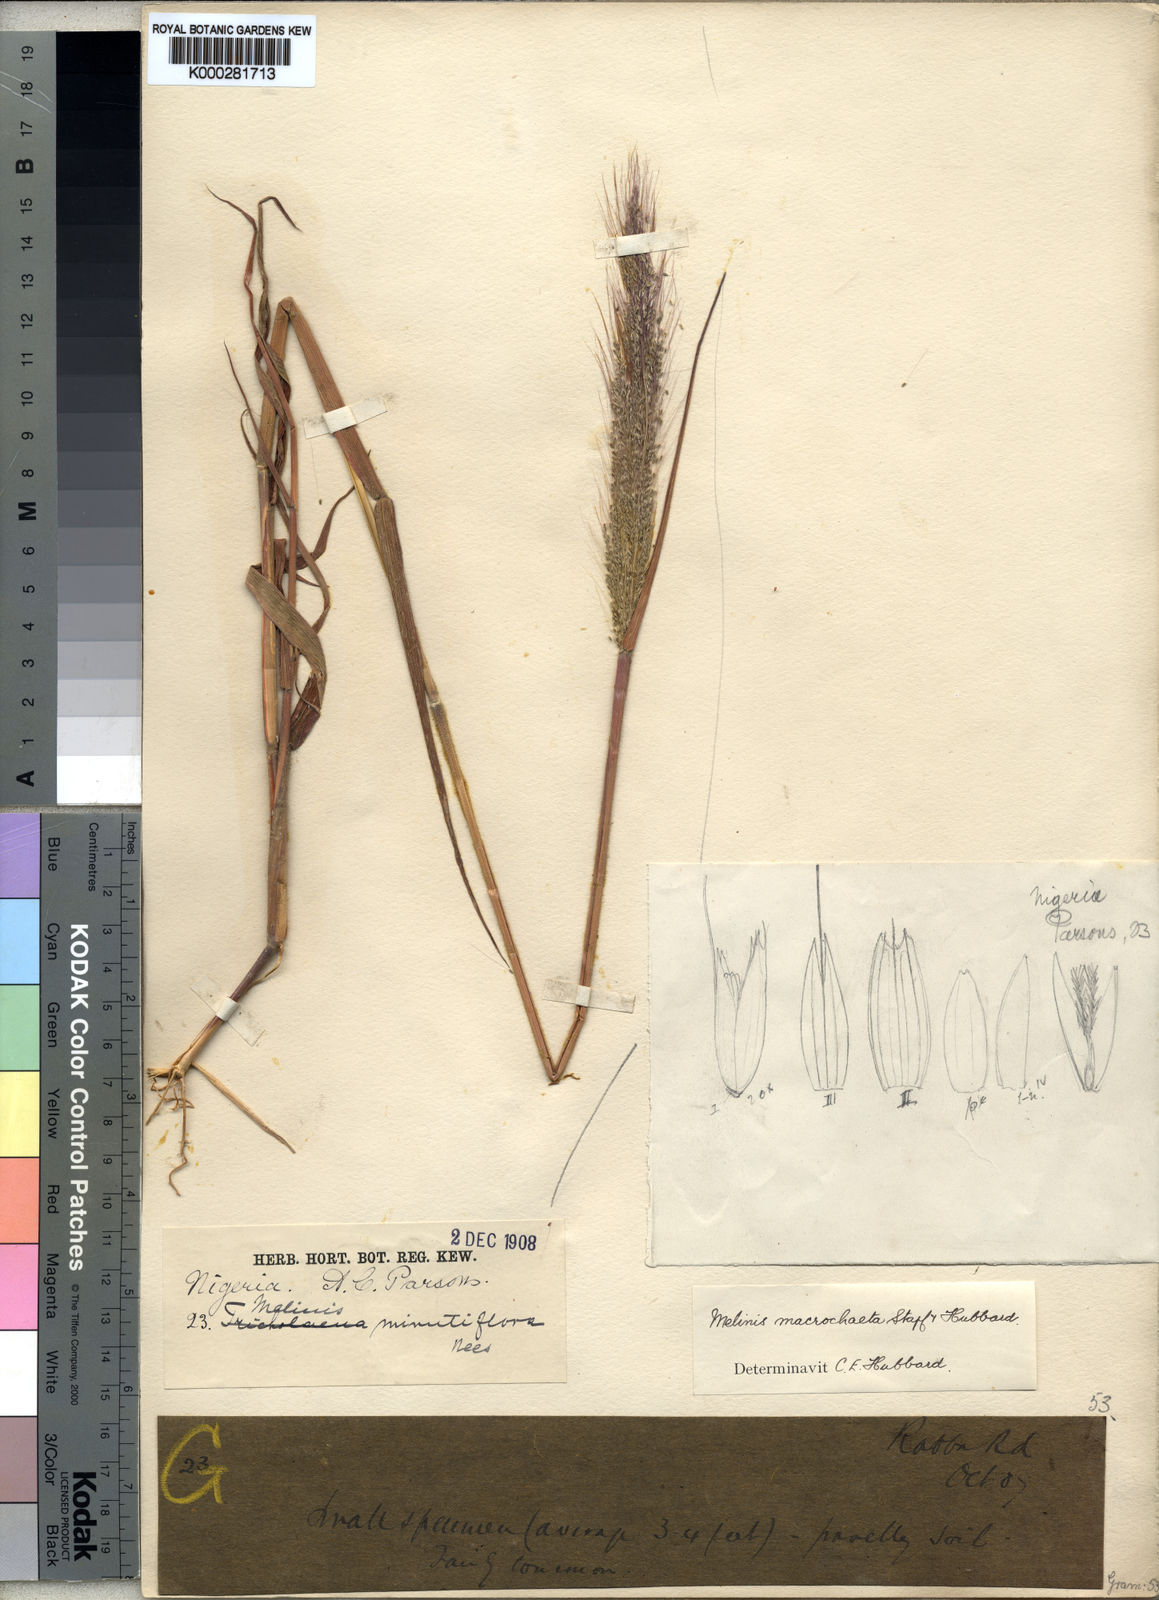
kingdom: Plantae
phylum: Tracheophyta
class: Liliopsida
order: Poales
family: Poaceae
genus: Melinis
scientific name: Melinis macrochaeta
